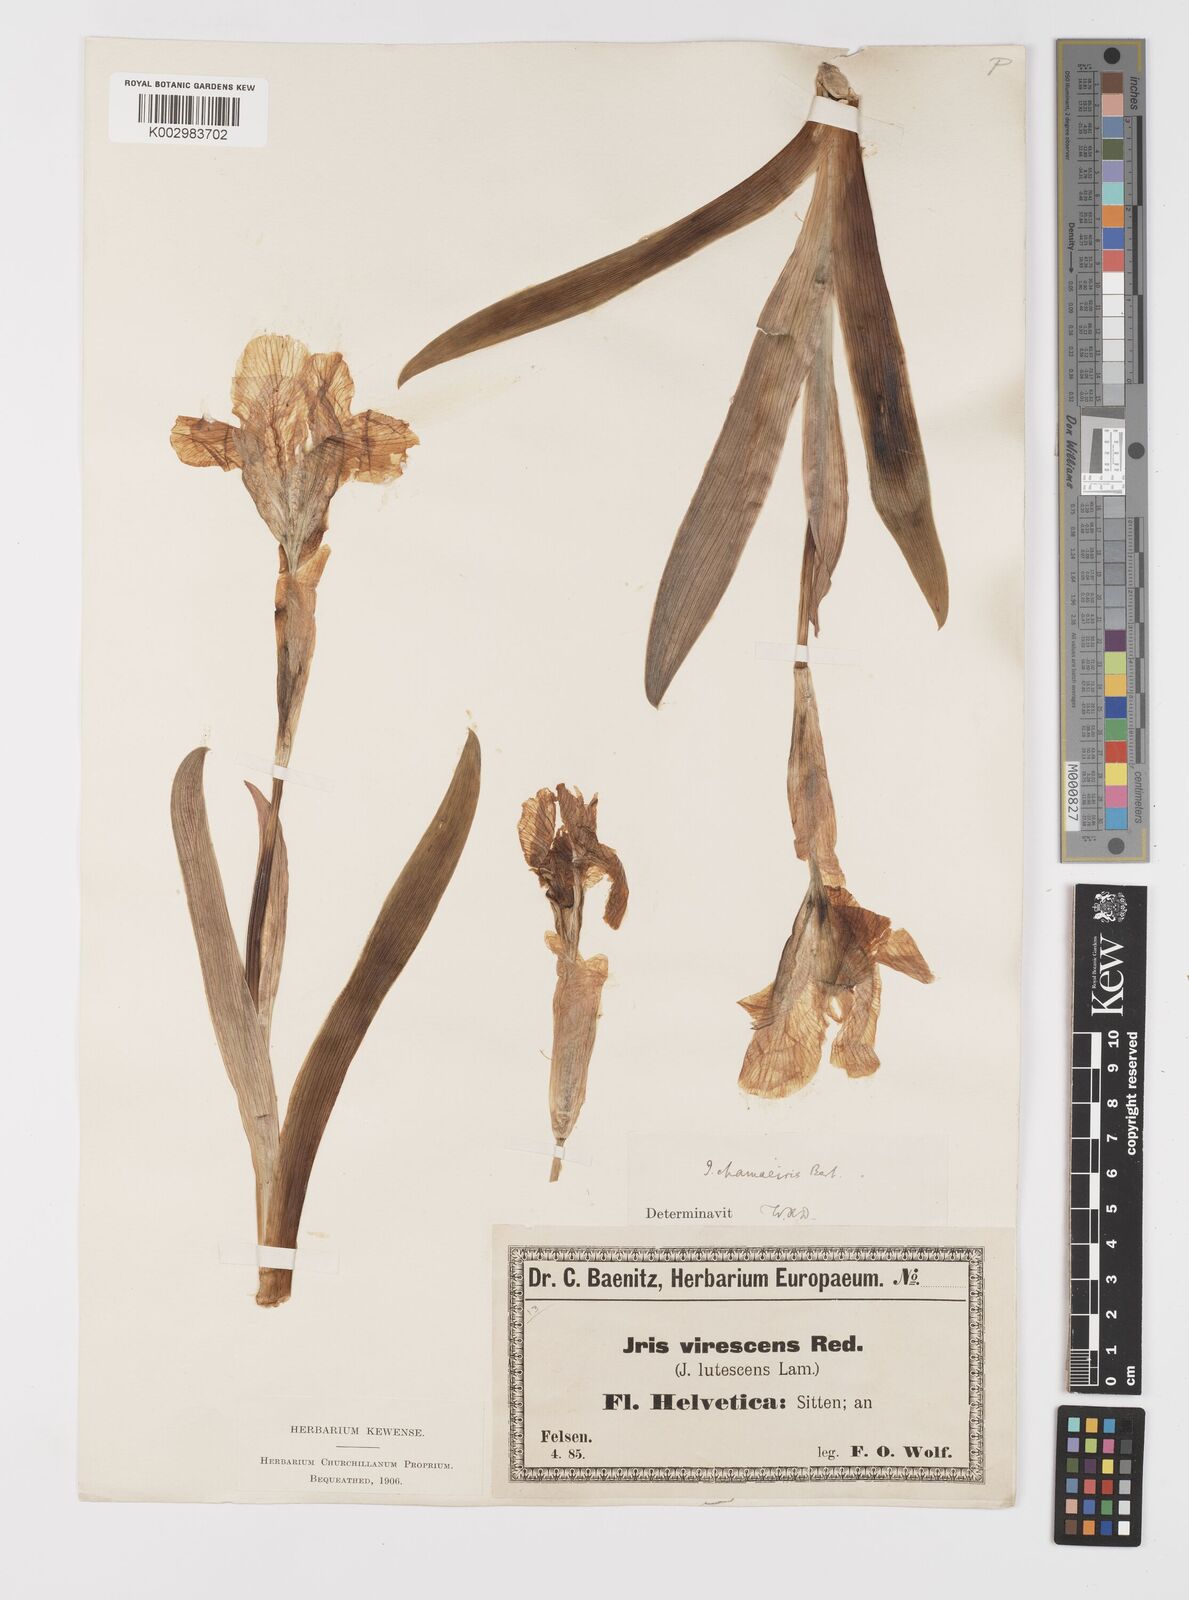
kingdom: Plantae
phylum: Tracheophyta
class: Liliopsida
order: Asparagales
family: Iridaceae
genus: Iris
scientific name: Iris lutescens
